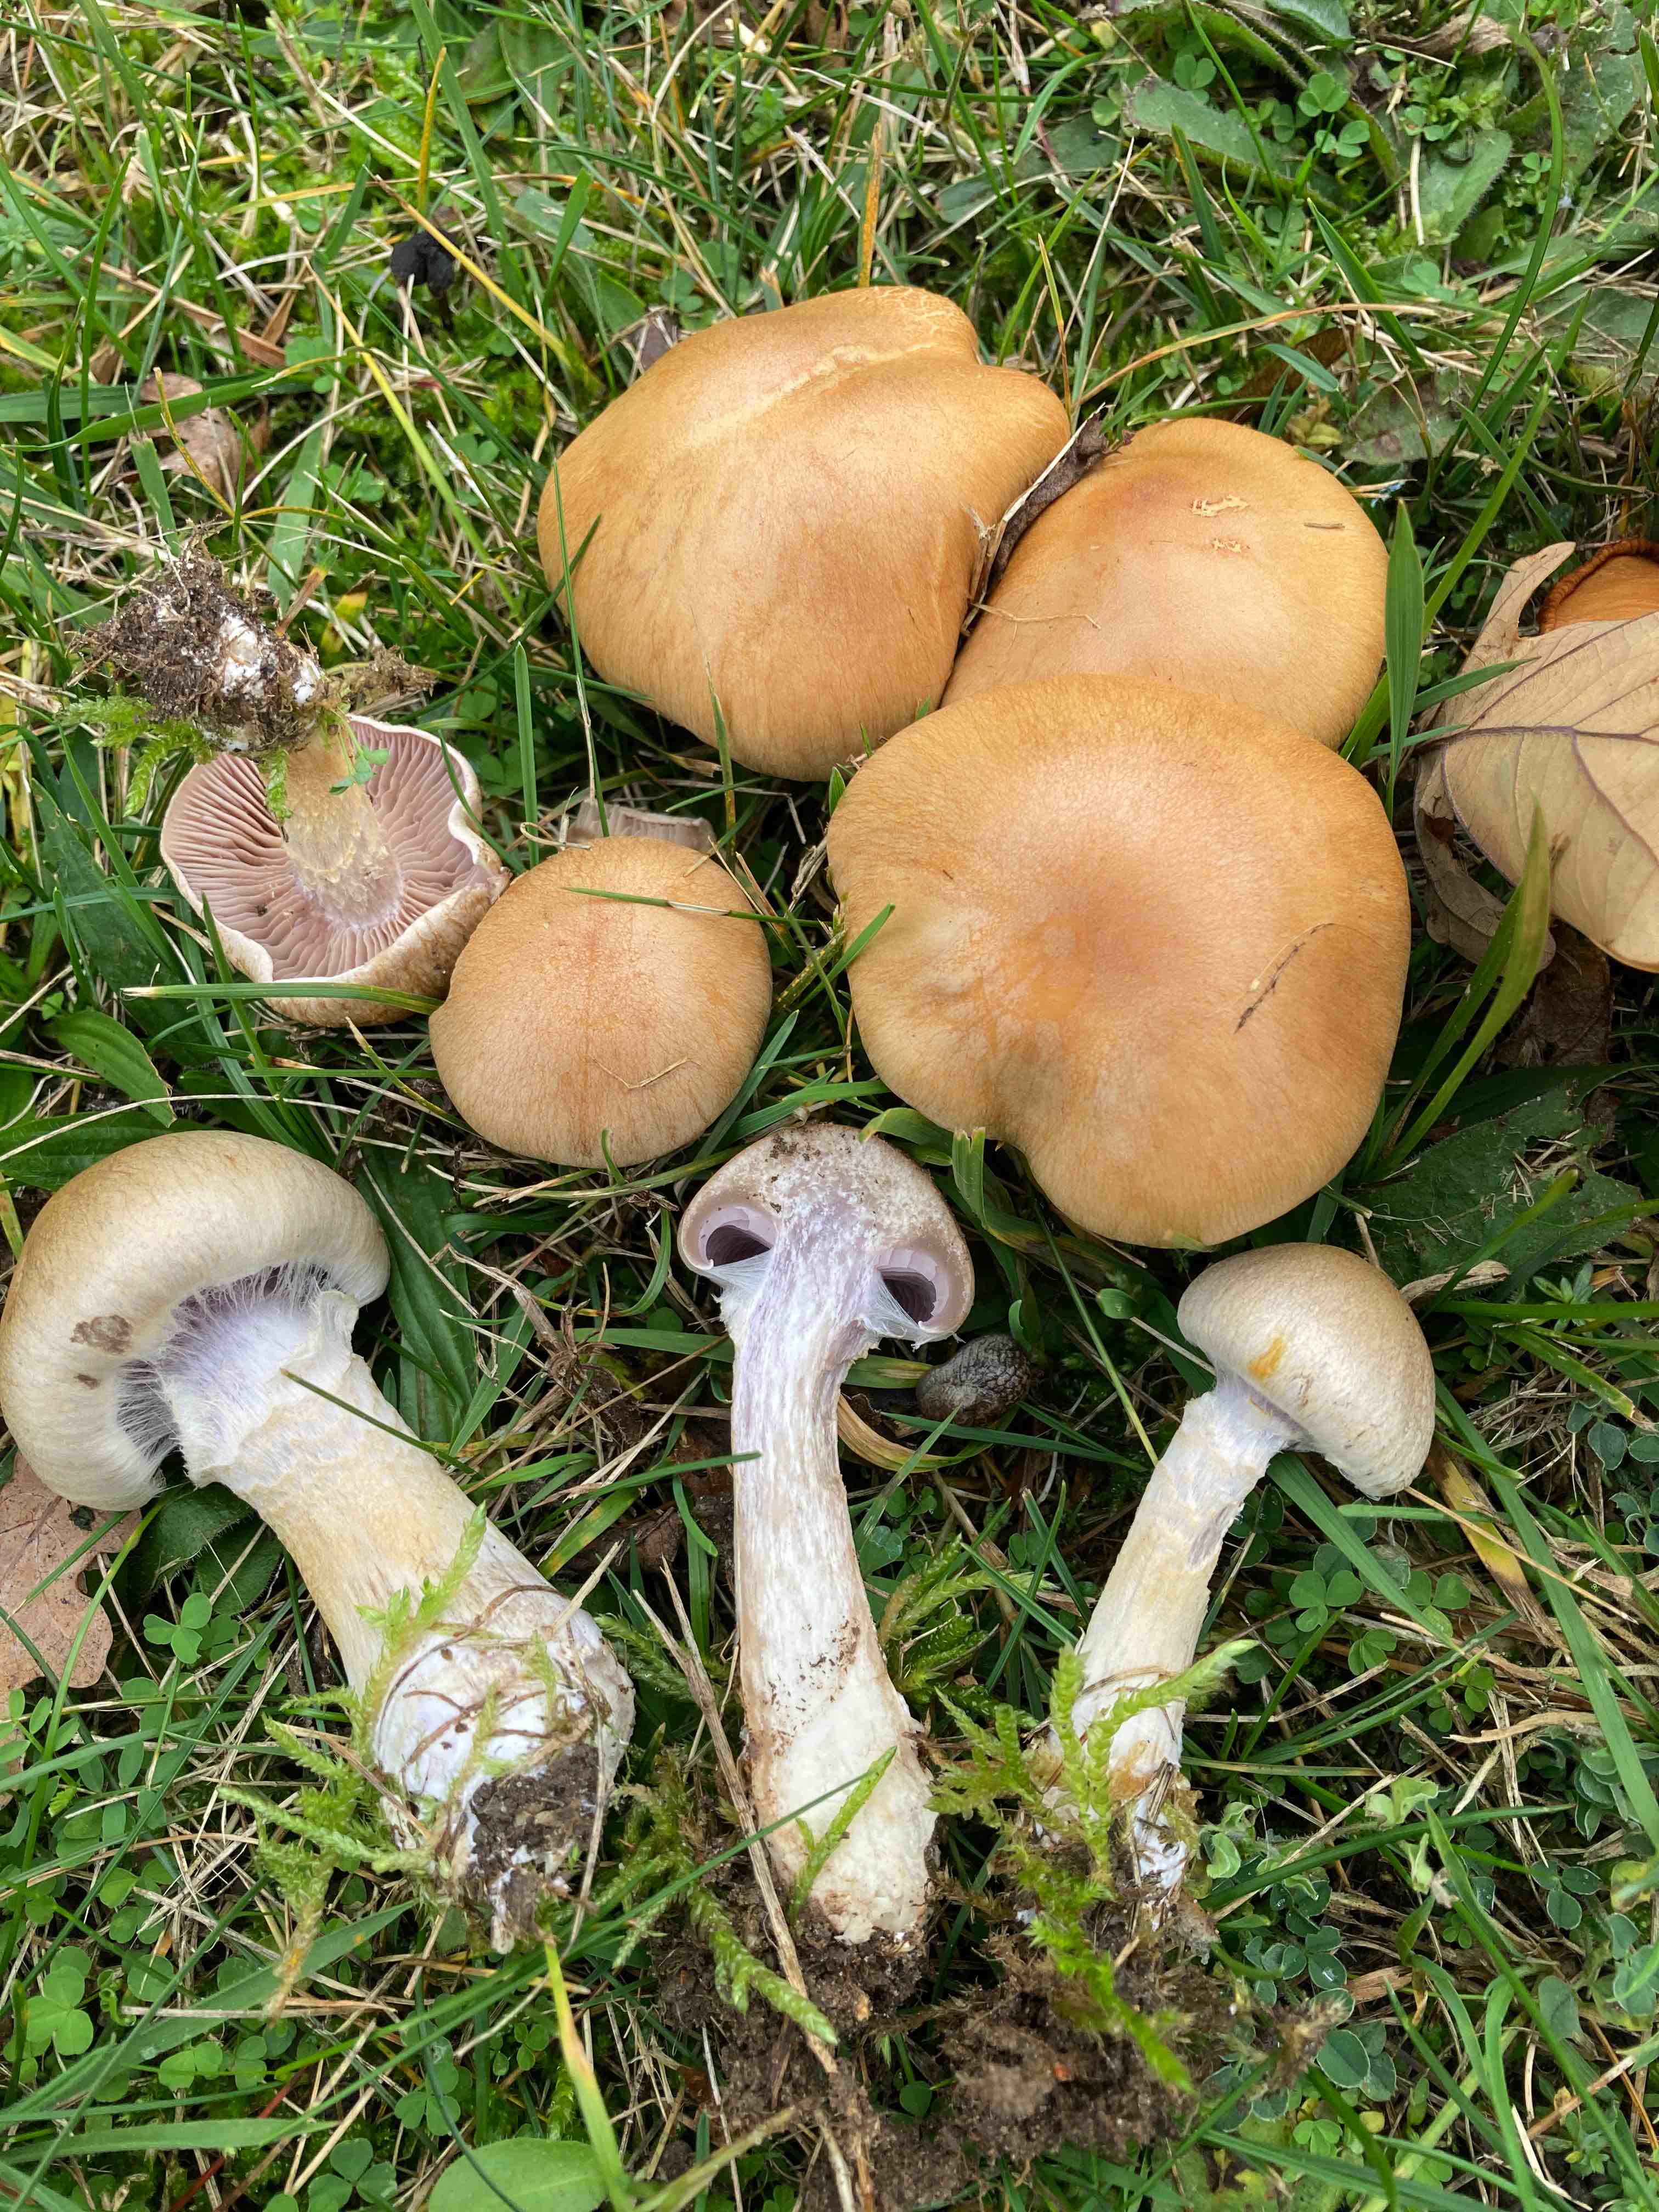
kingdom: Fungi
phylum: Basidiomycota
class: Agaricomycetes
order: Agaricales
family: Cortinariaceae
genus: Cortinarius
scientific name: Cortinarius anomalus
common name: Variable webcap
